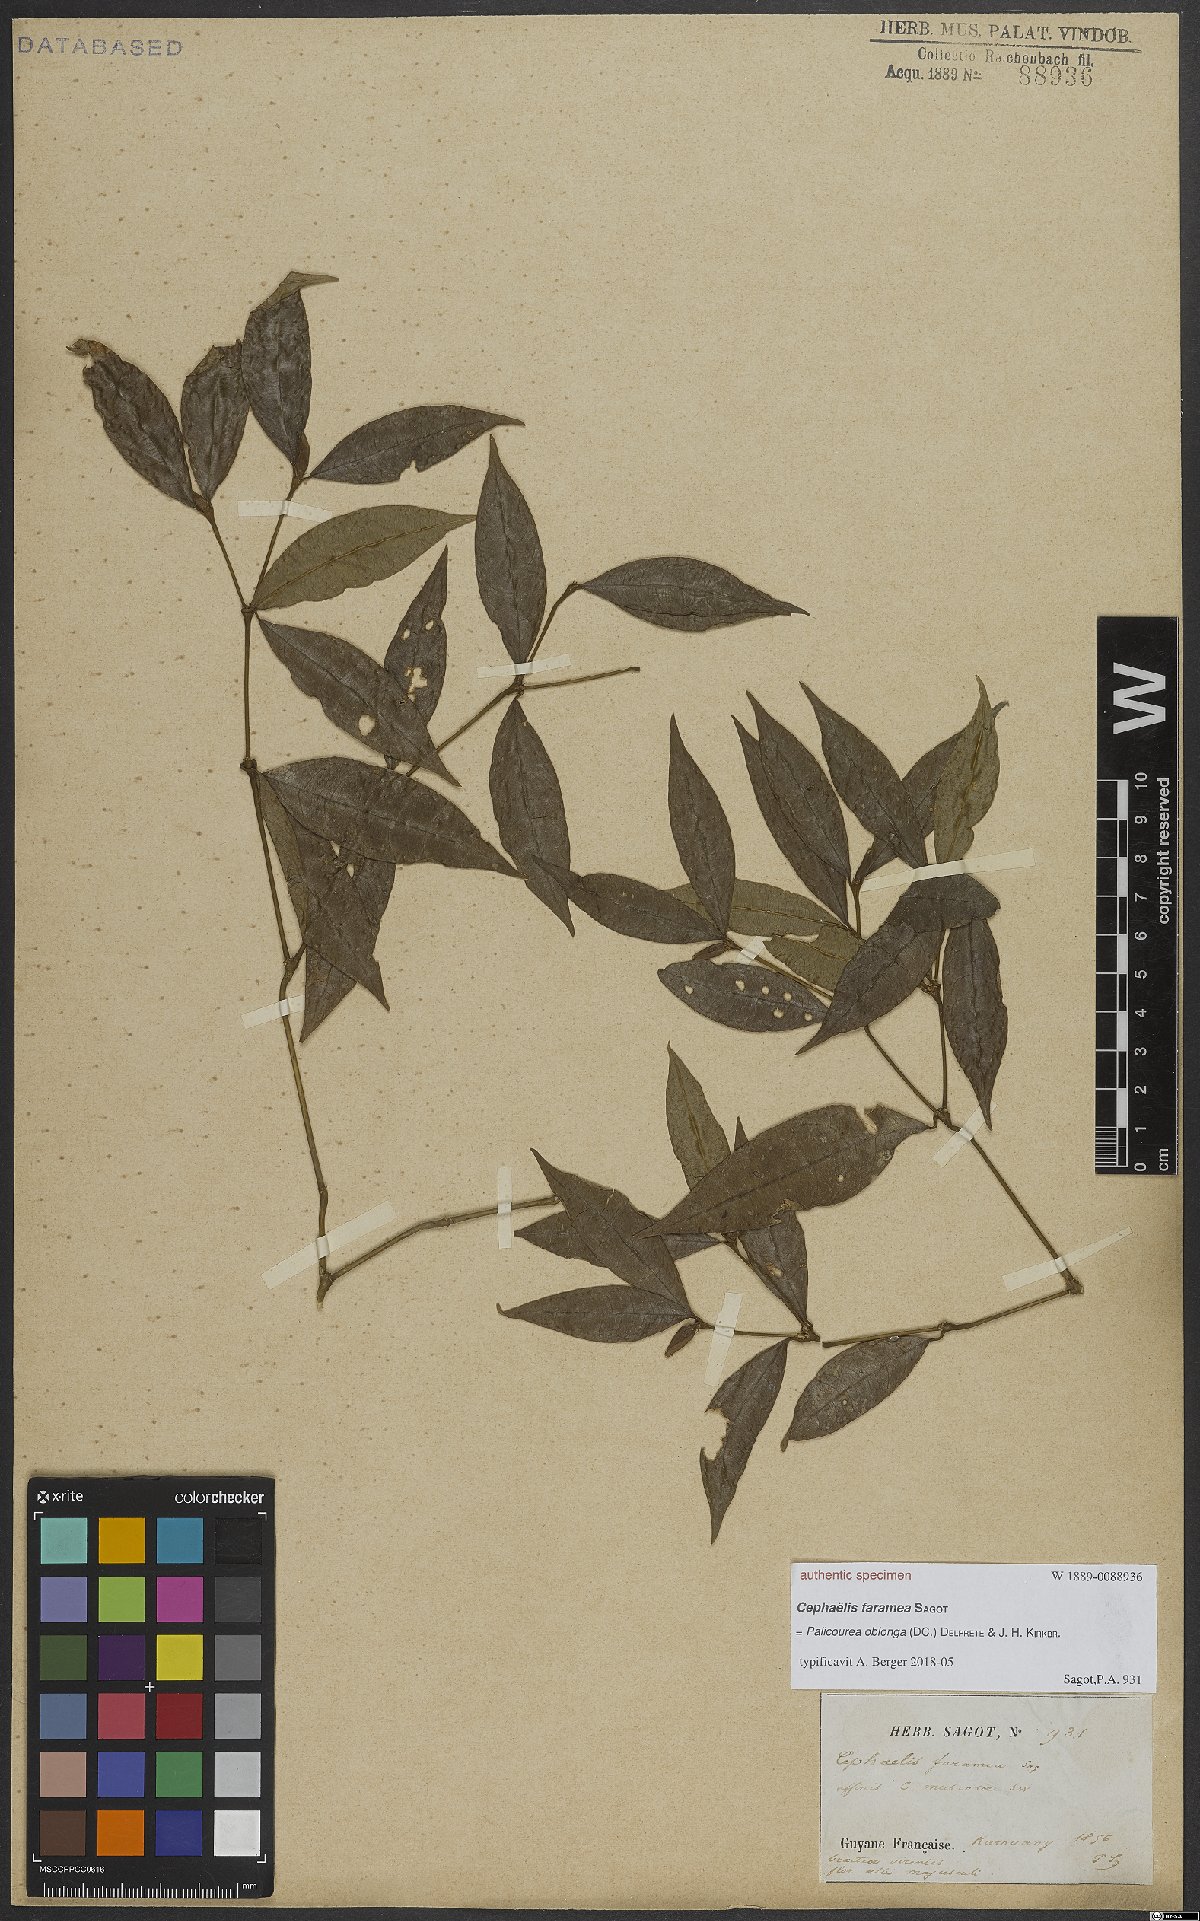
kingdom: Plantae
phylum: Tracheophyta
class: Magnoliopsida
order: Gentianales
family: Rubiaceae
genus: Psychotria
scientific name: Psychotria Cephaelis faramea
